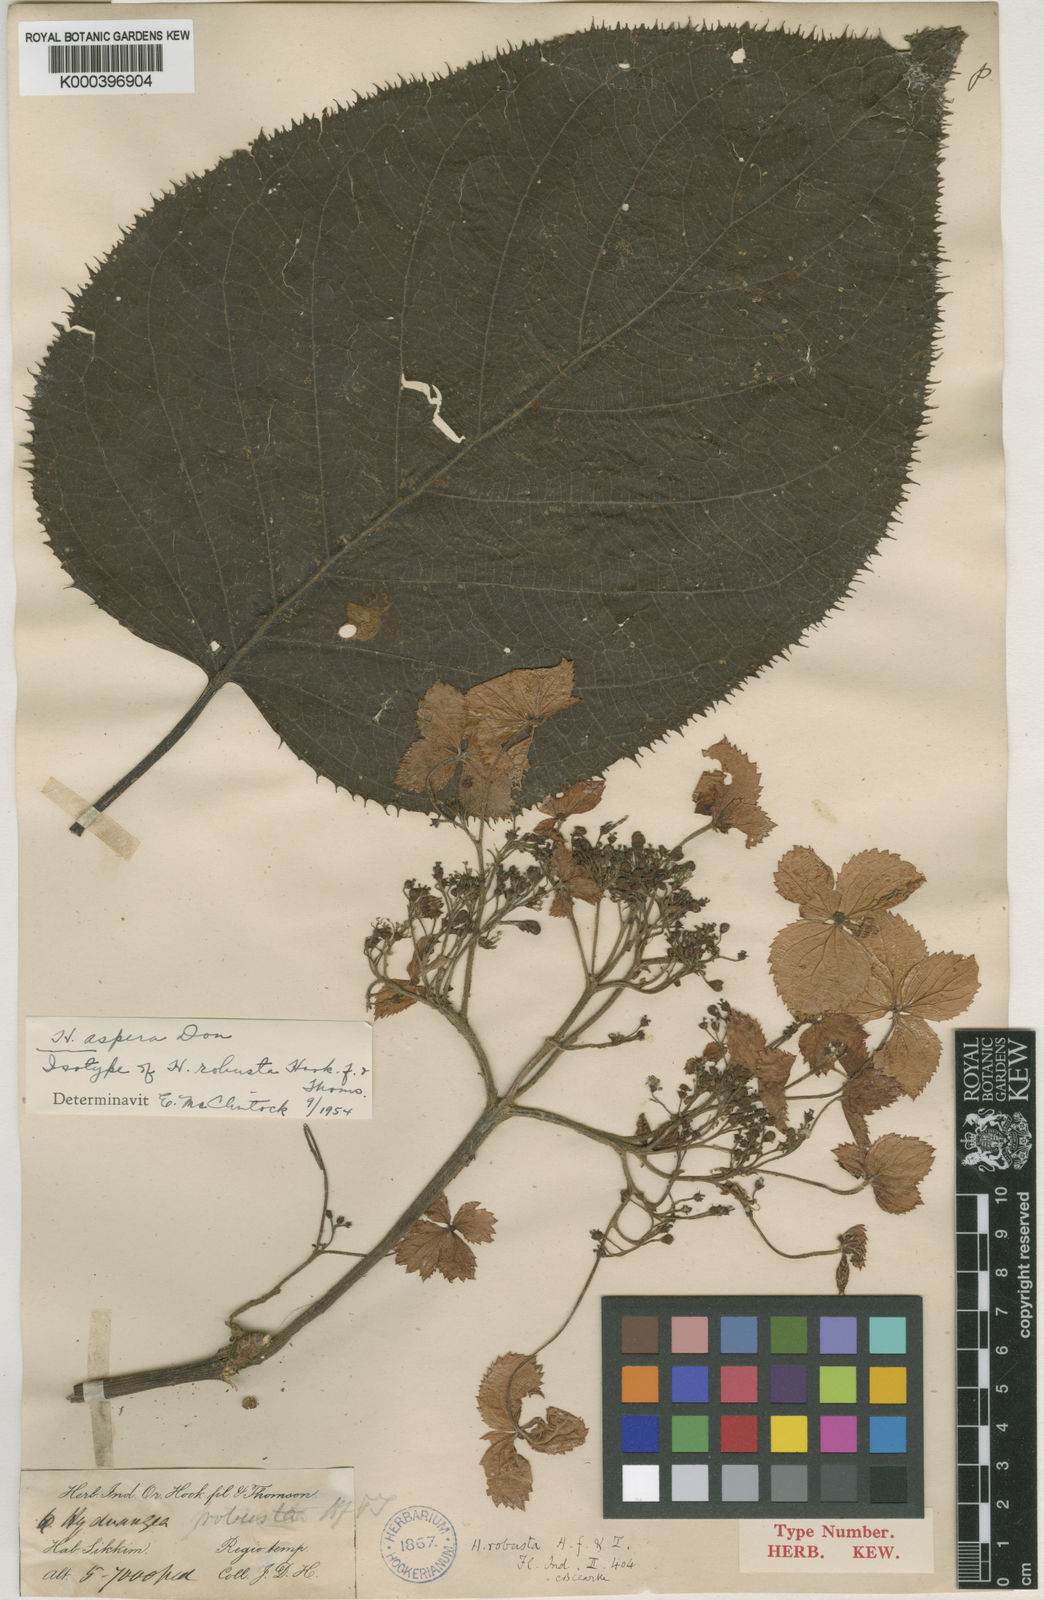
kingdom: Plantae
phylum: Tracheophyta
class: Magnoliopsida
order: Cornales
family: Hydrangeaceae
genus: Hydrangea
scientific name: Hydrangea aspera
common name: Rough-leaf hydrangea
